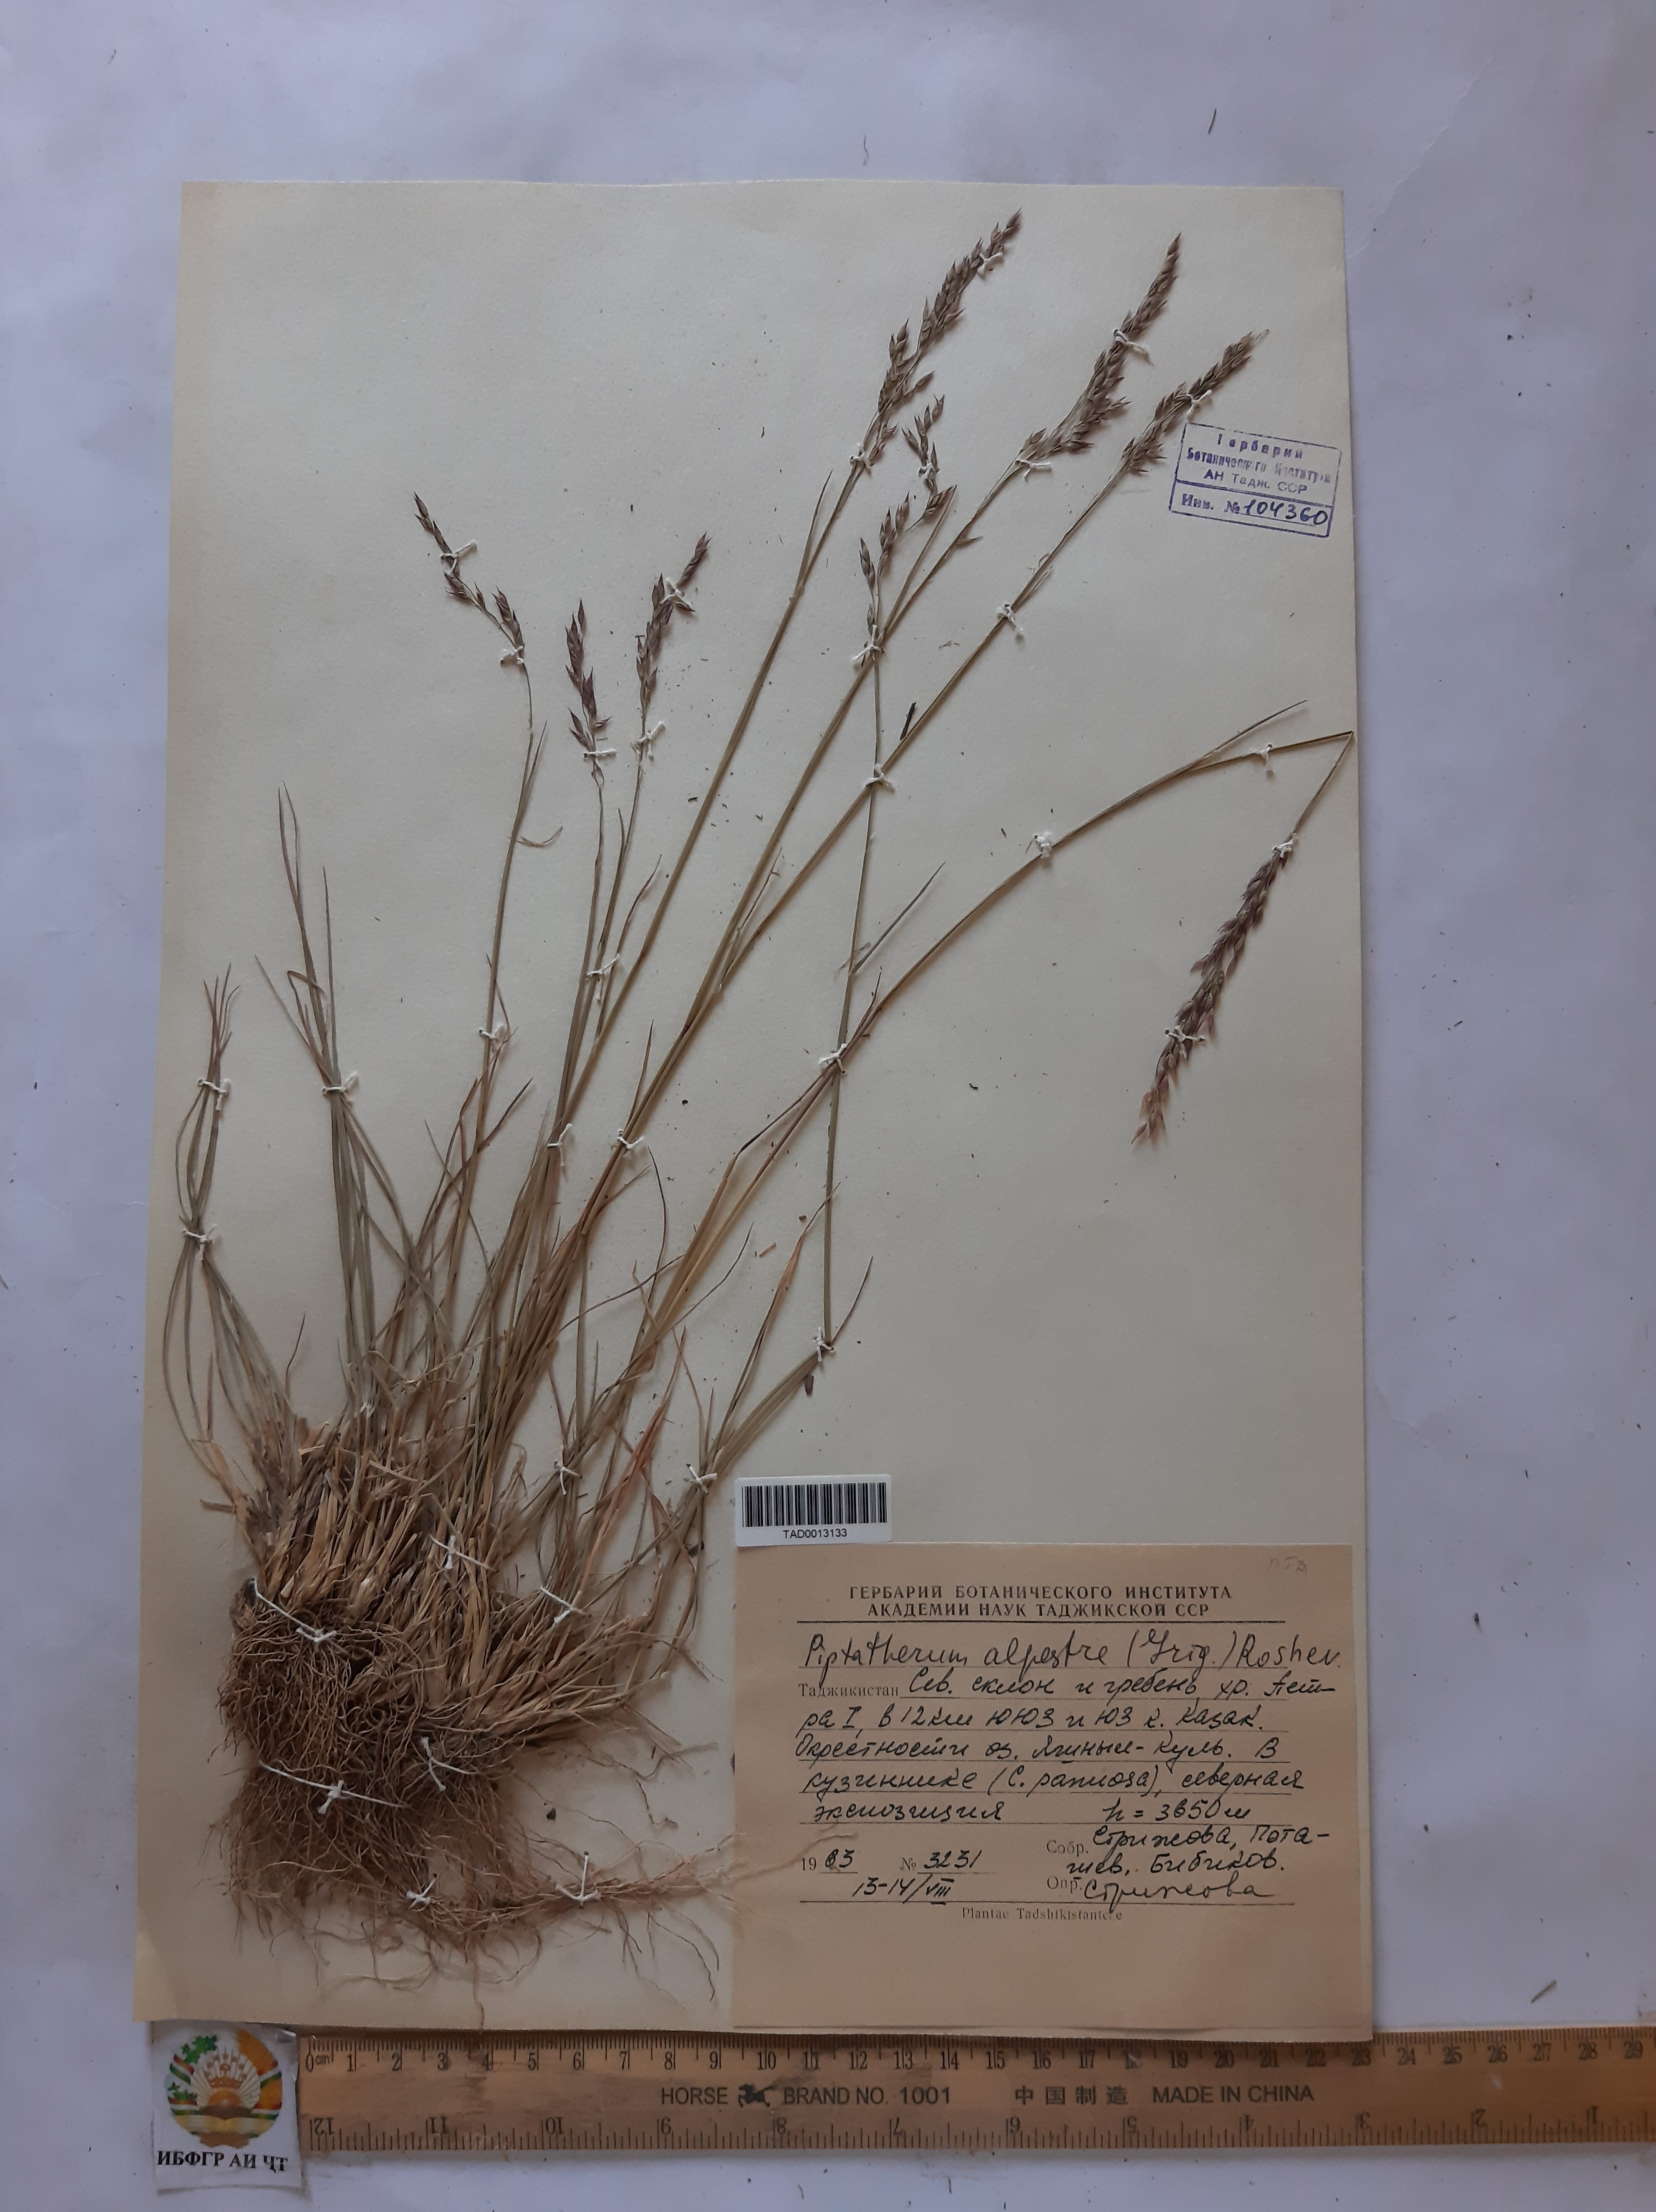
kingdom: Plantae
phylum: Tracheophyta
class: Liliopsida
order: Poales
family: Poaceae
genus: Piptatherum
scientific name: Piptatherum alpestre
